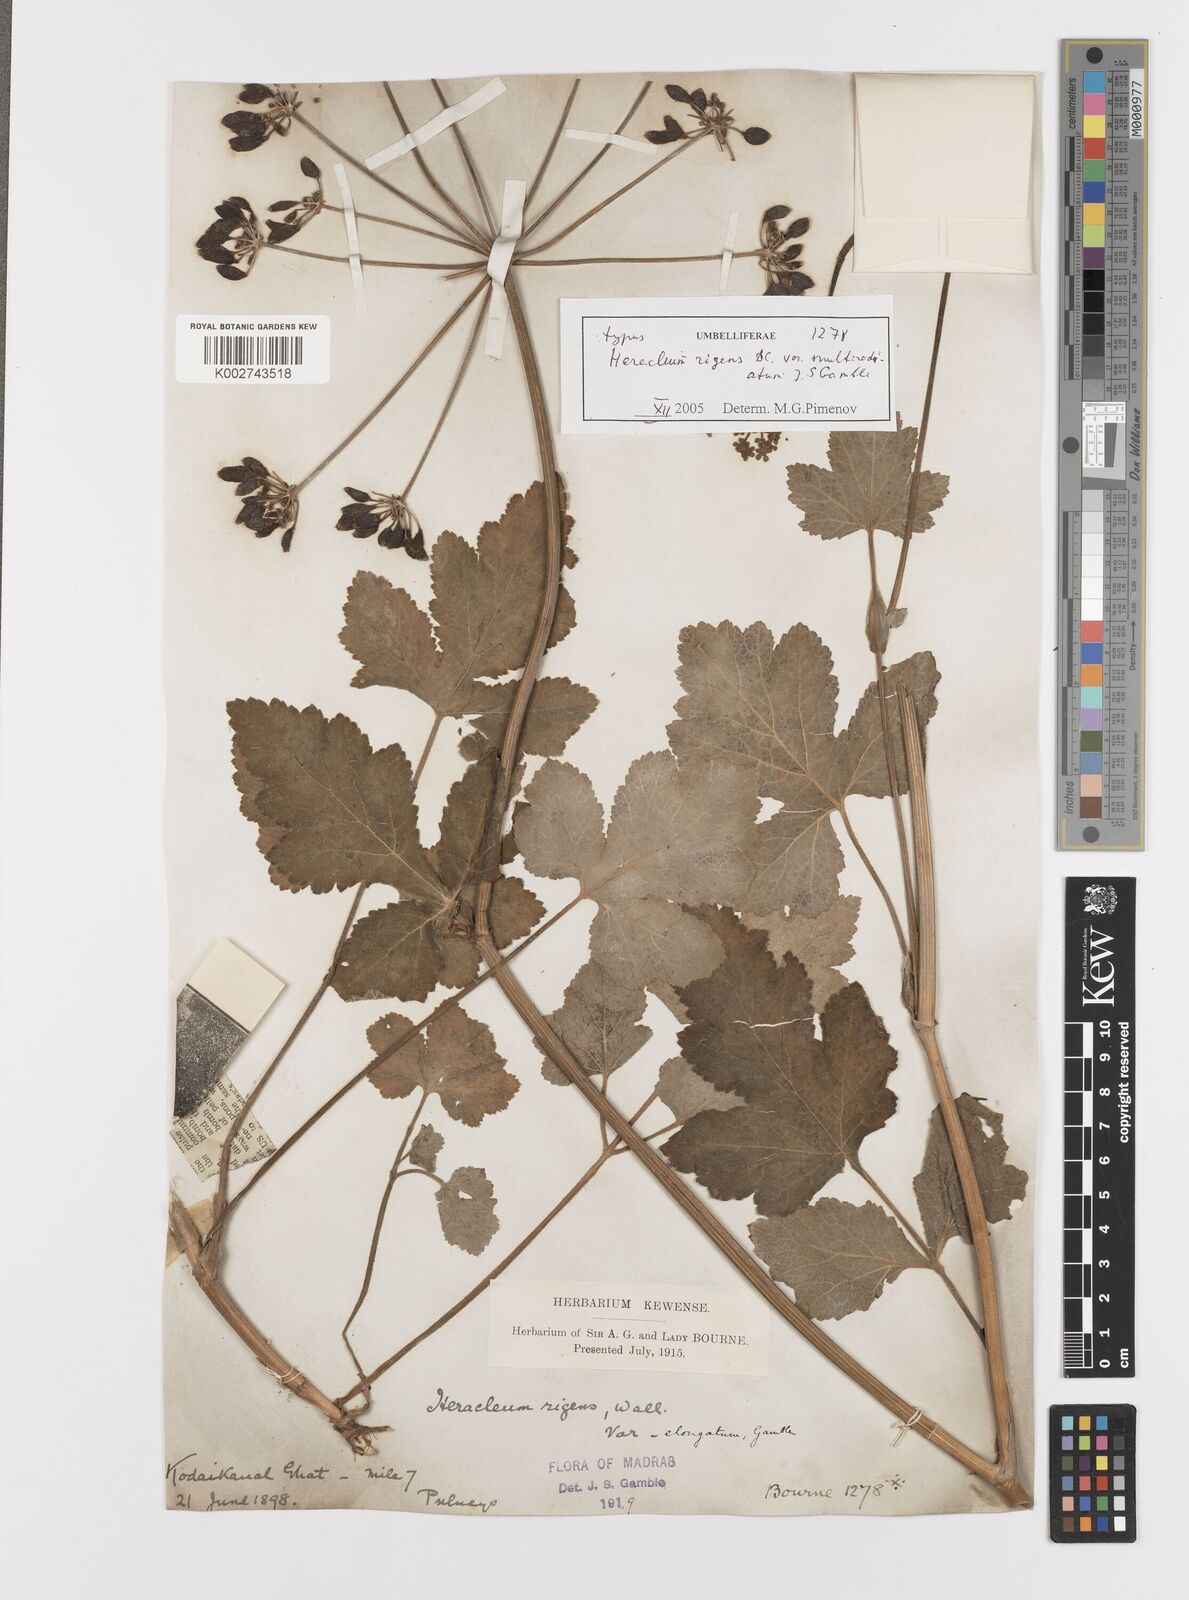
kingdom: Plantae
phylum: Tracheophyta
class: Magnoliopsida
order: Apiales
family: Apiaceae
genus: Tetrataenium
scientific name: Tetrataenium rigens
